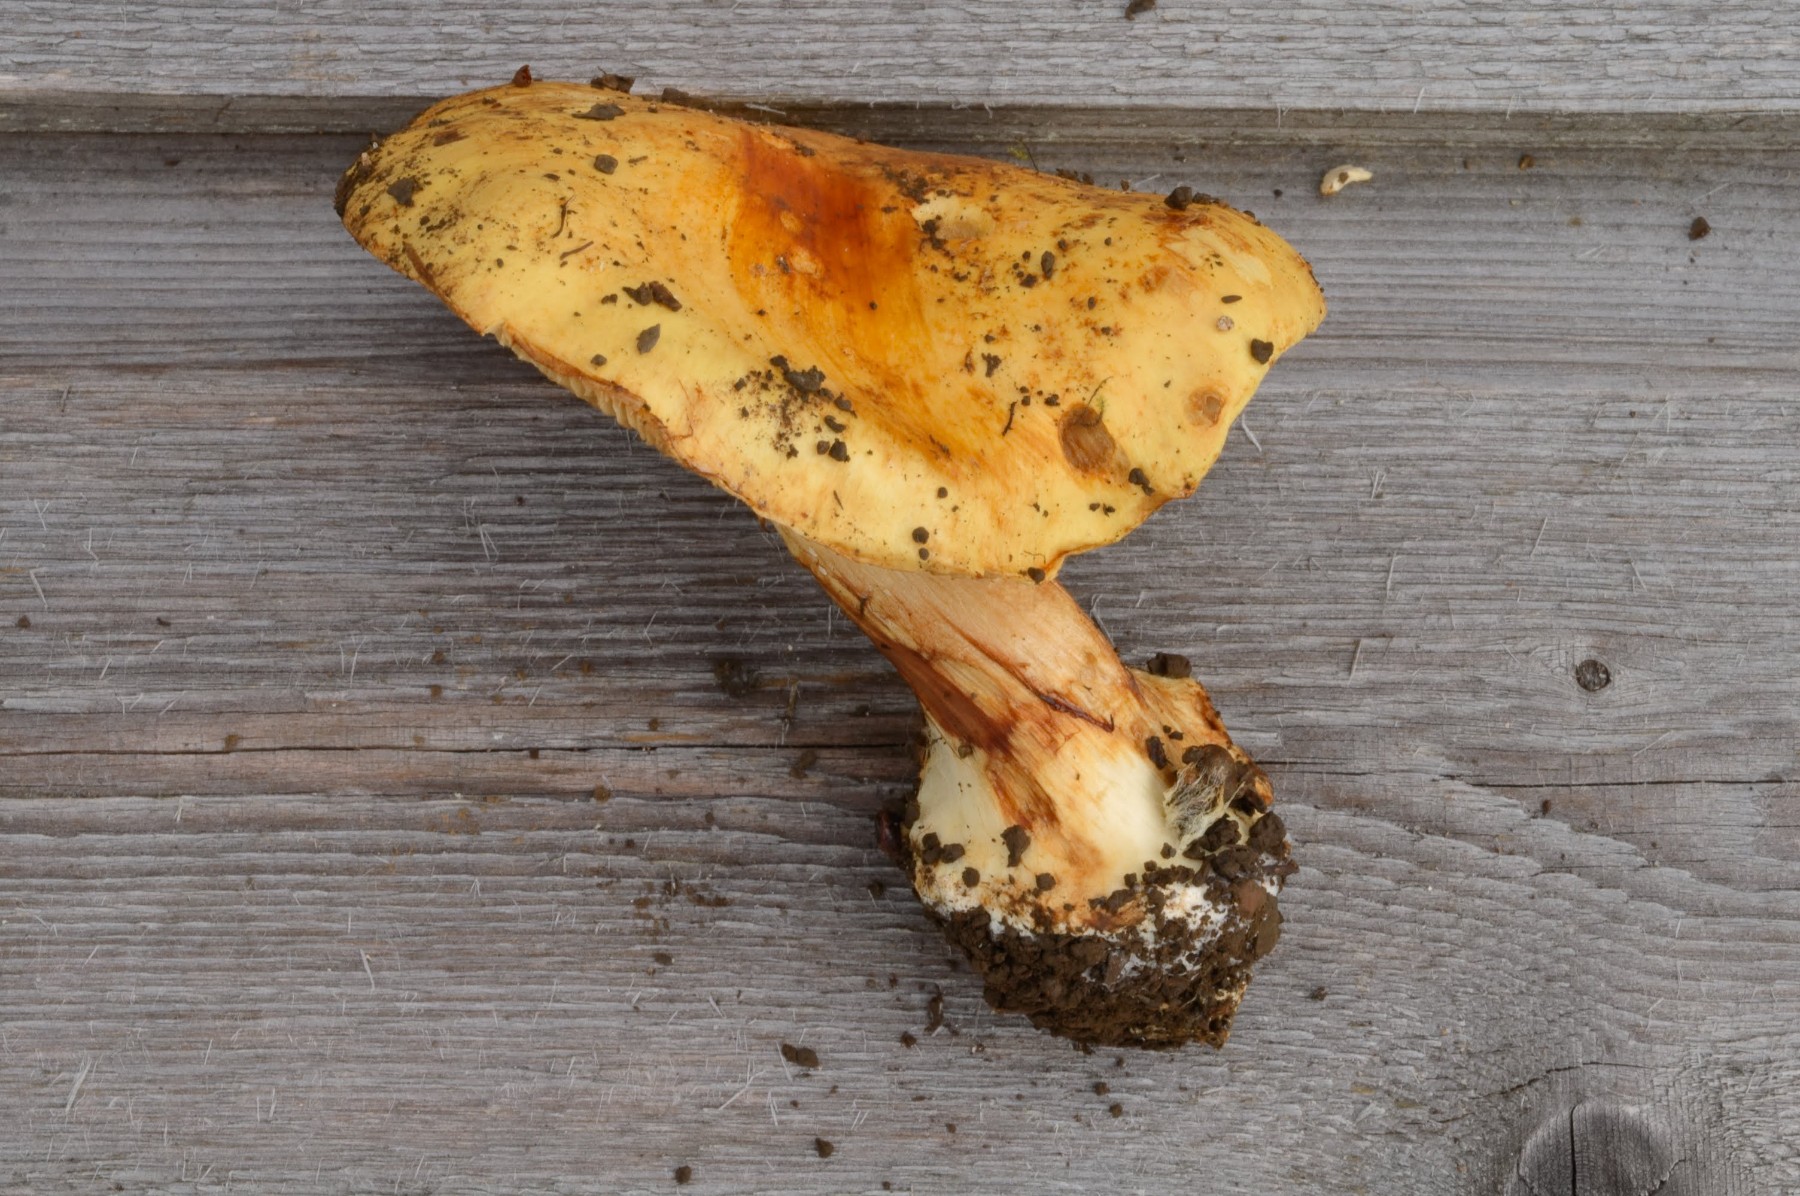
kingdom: Fungi
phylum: Basidiomycota
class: Agaricomycetes
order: Agaricales
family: Cortinariaceae
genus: Calonarius
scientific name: Calonarius osloensis
